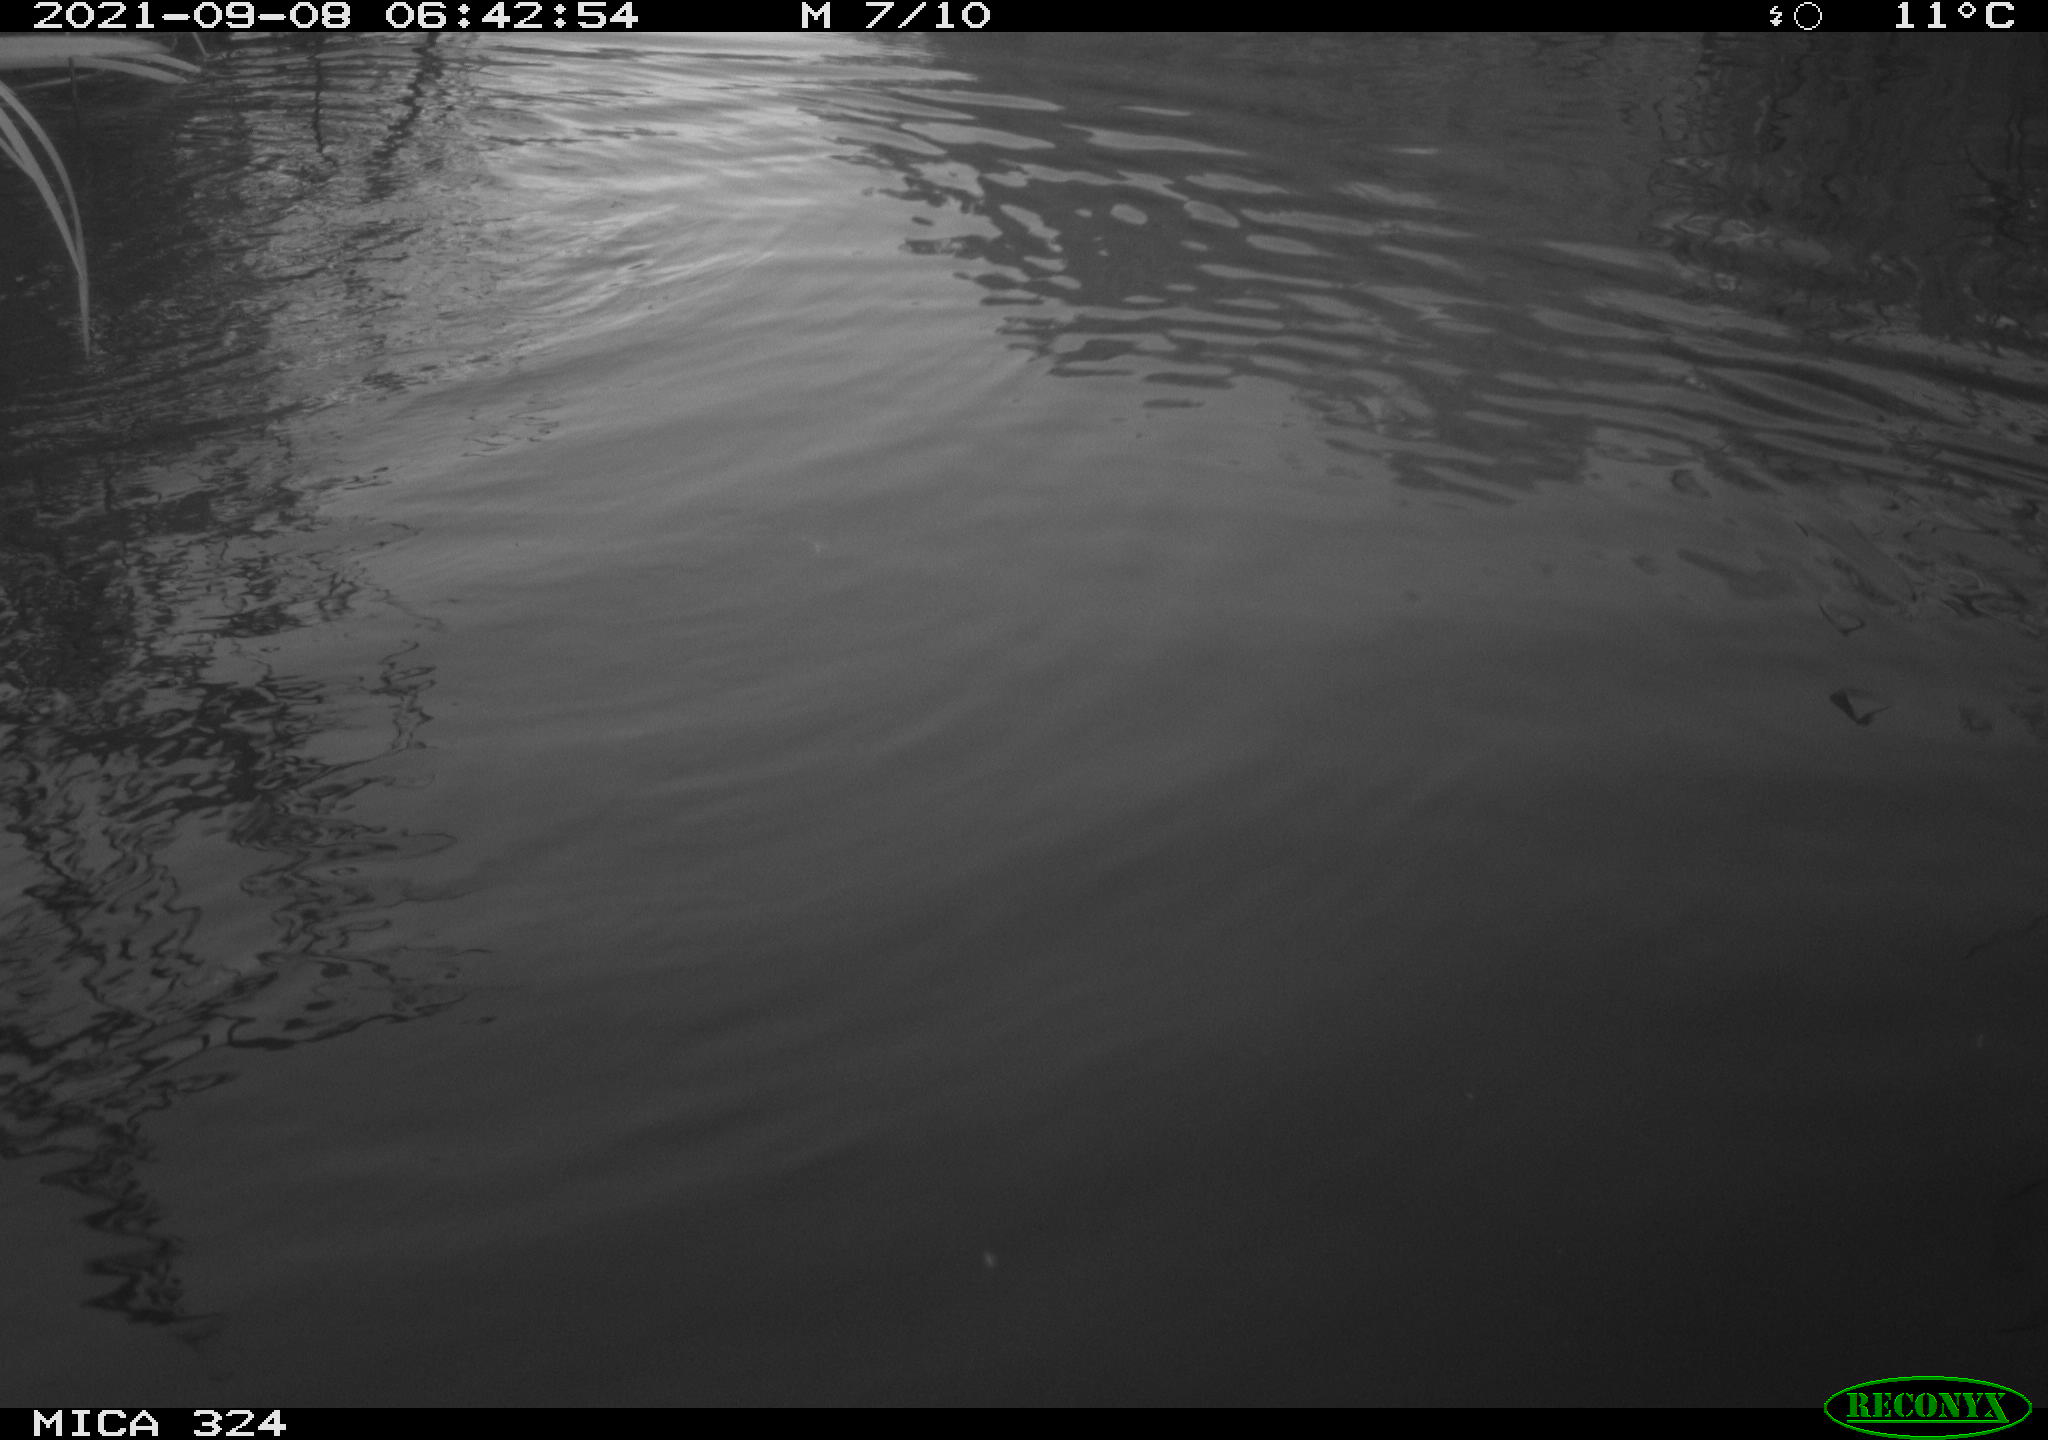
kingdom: Animalia
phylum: Chordata
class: Mammalia
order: Rodentia
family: Cricetidae
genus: Ondatra
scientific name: Ondatra zibethicus
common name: Muskrat
